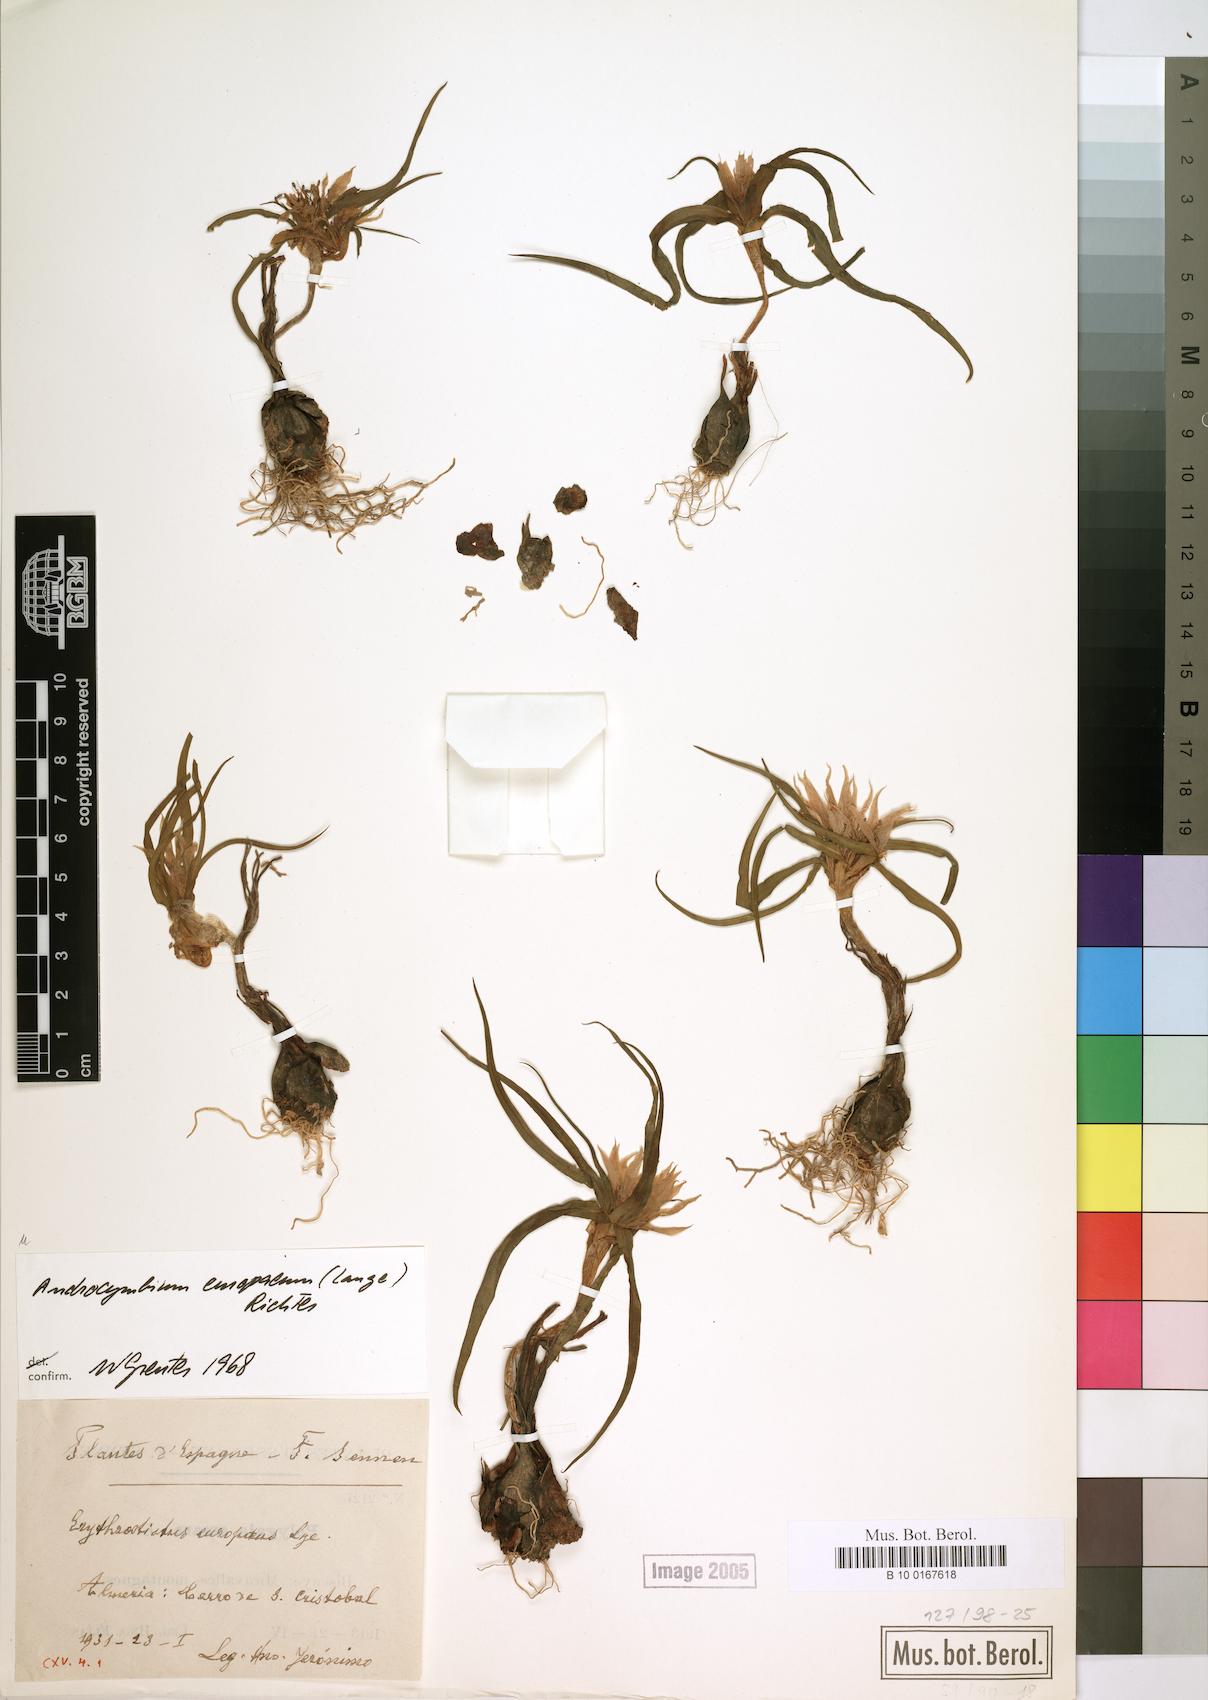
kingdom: Plantae
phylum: Tracheophyta
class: Liliopsida
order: Liliales
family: Colchicaceae
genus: Colchicum
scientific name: Colchicum europaeum
